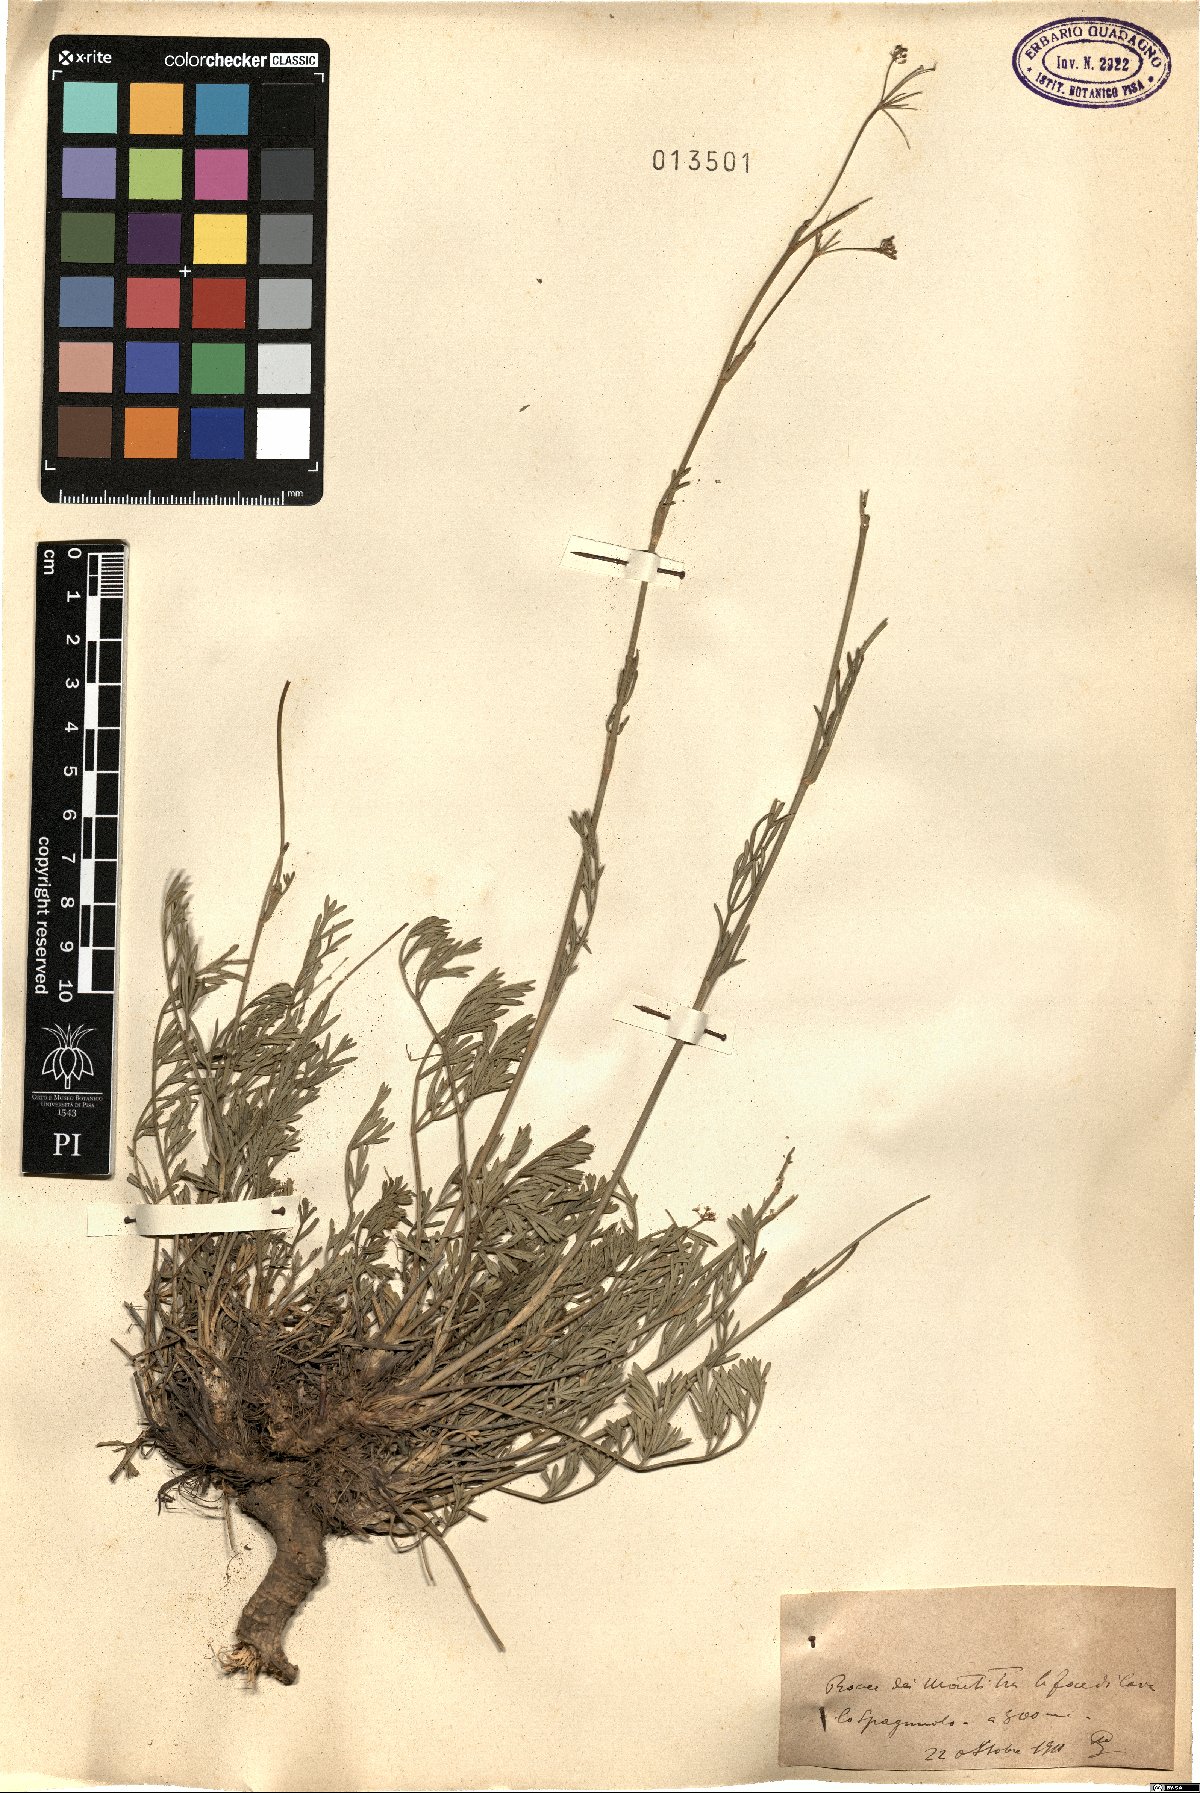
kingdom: Plantae
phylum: Tracheophyta
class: Magnoliopsida
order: Apiales
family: Apiaceae
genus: Seseli
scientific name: Seseli
